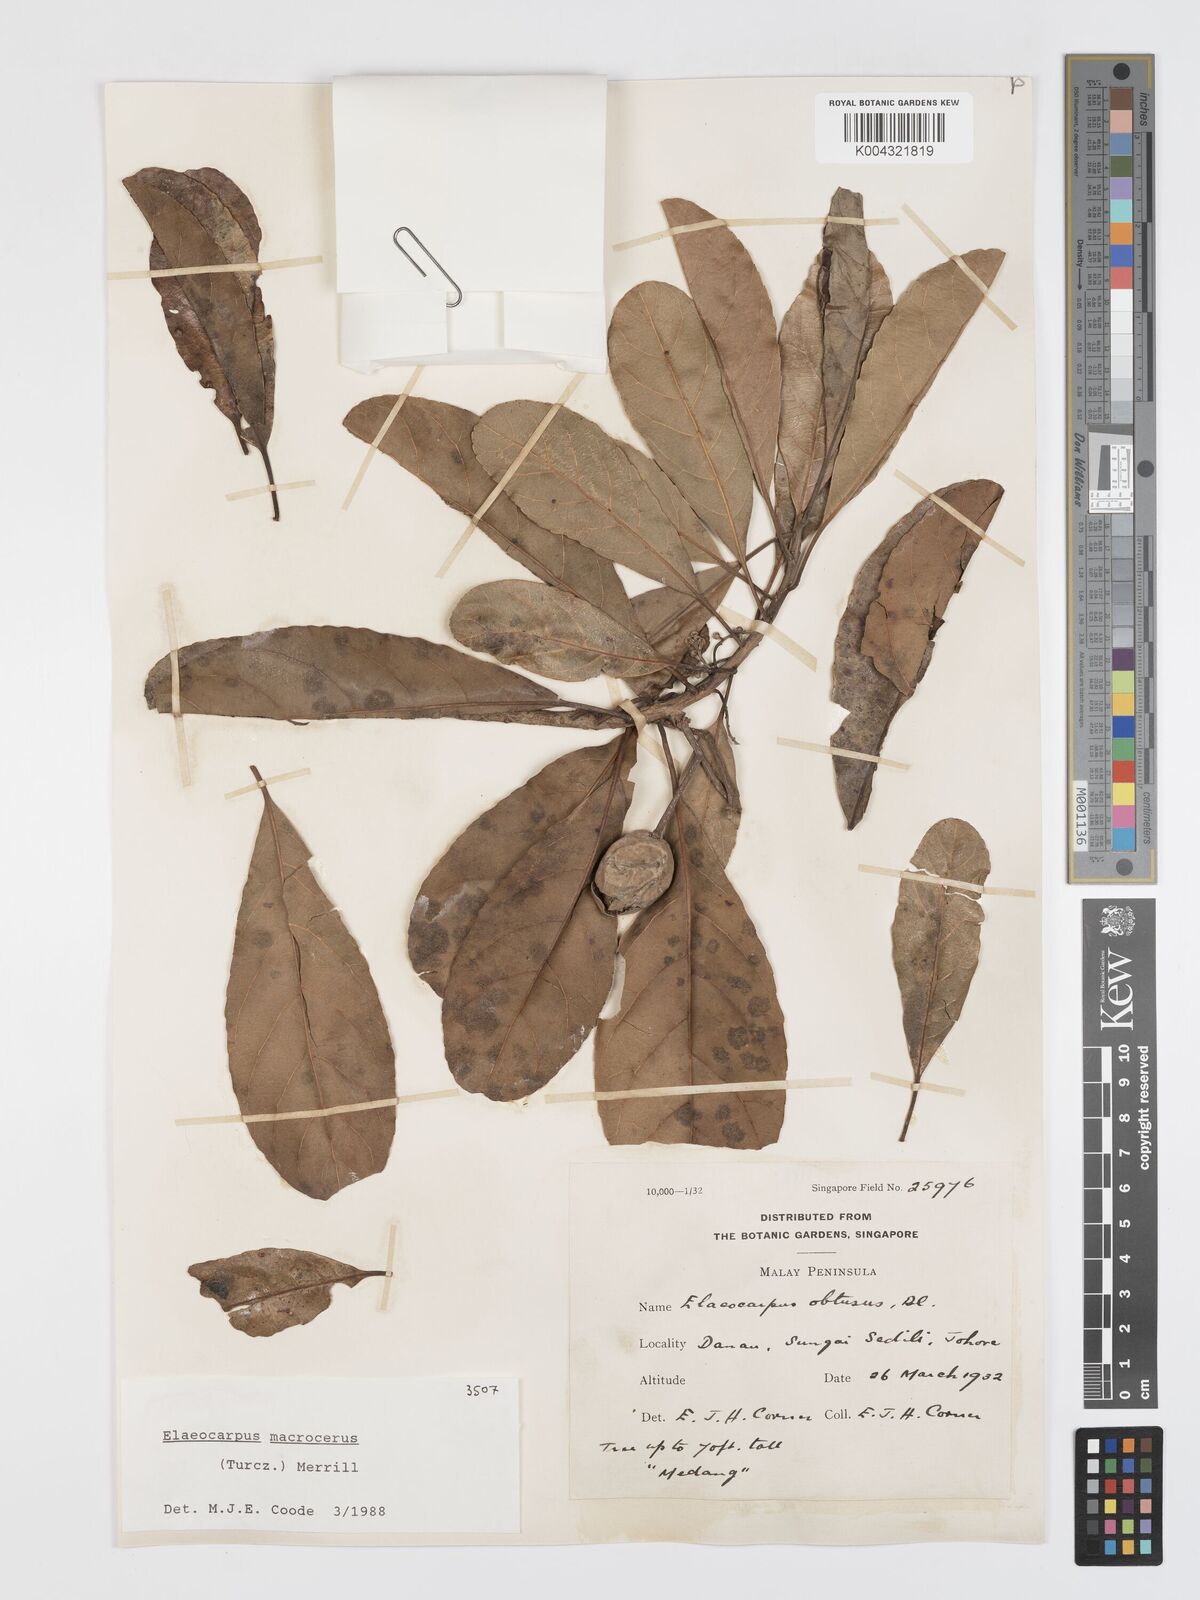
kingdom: Plantae
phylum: Tracheophyta
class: Magnoliopsida
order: Oxalidales
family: Elaeocarpaceae
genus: Elaeocarpus
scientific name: Elaeocarpus macrocerus
